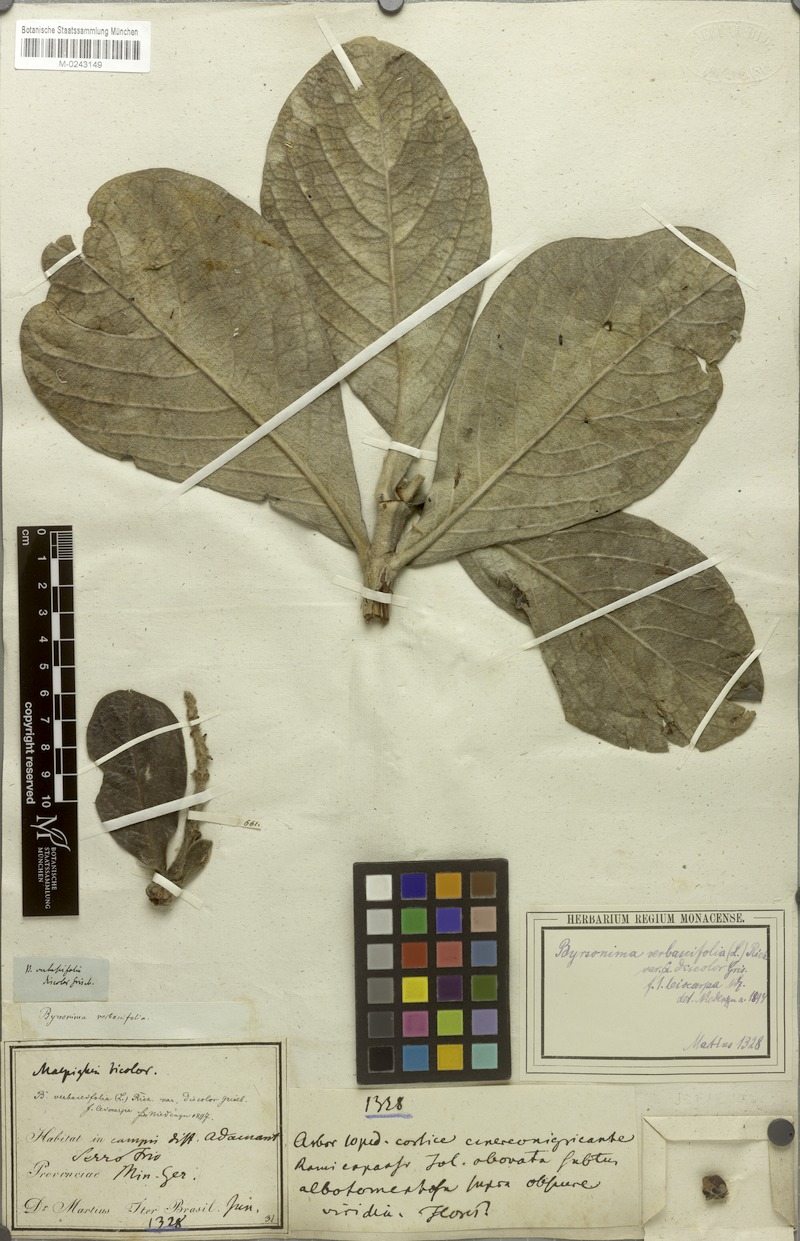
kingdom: Plantae
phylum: Tracheophyta
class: Magnoliopsida
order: Malpighiales
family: Malpighiaceae
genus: Byrsonima
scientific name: Byrsonima verbascifolia
